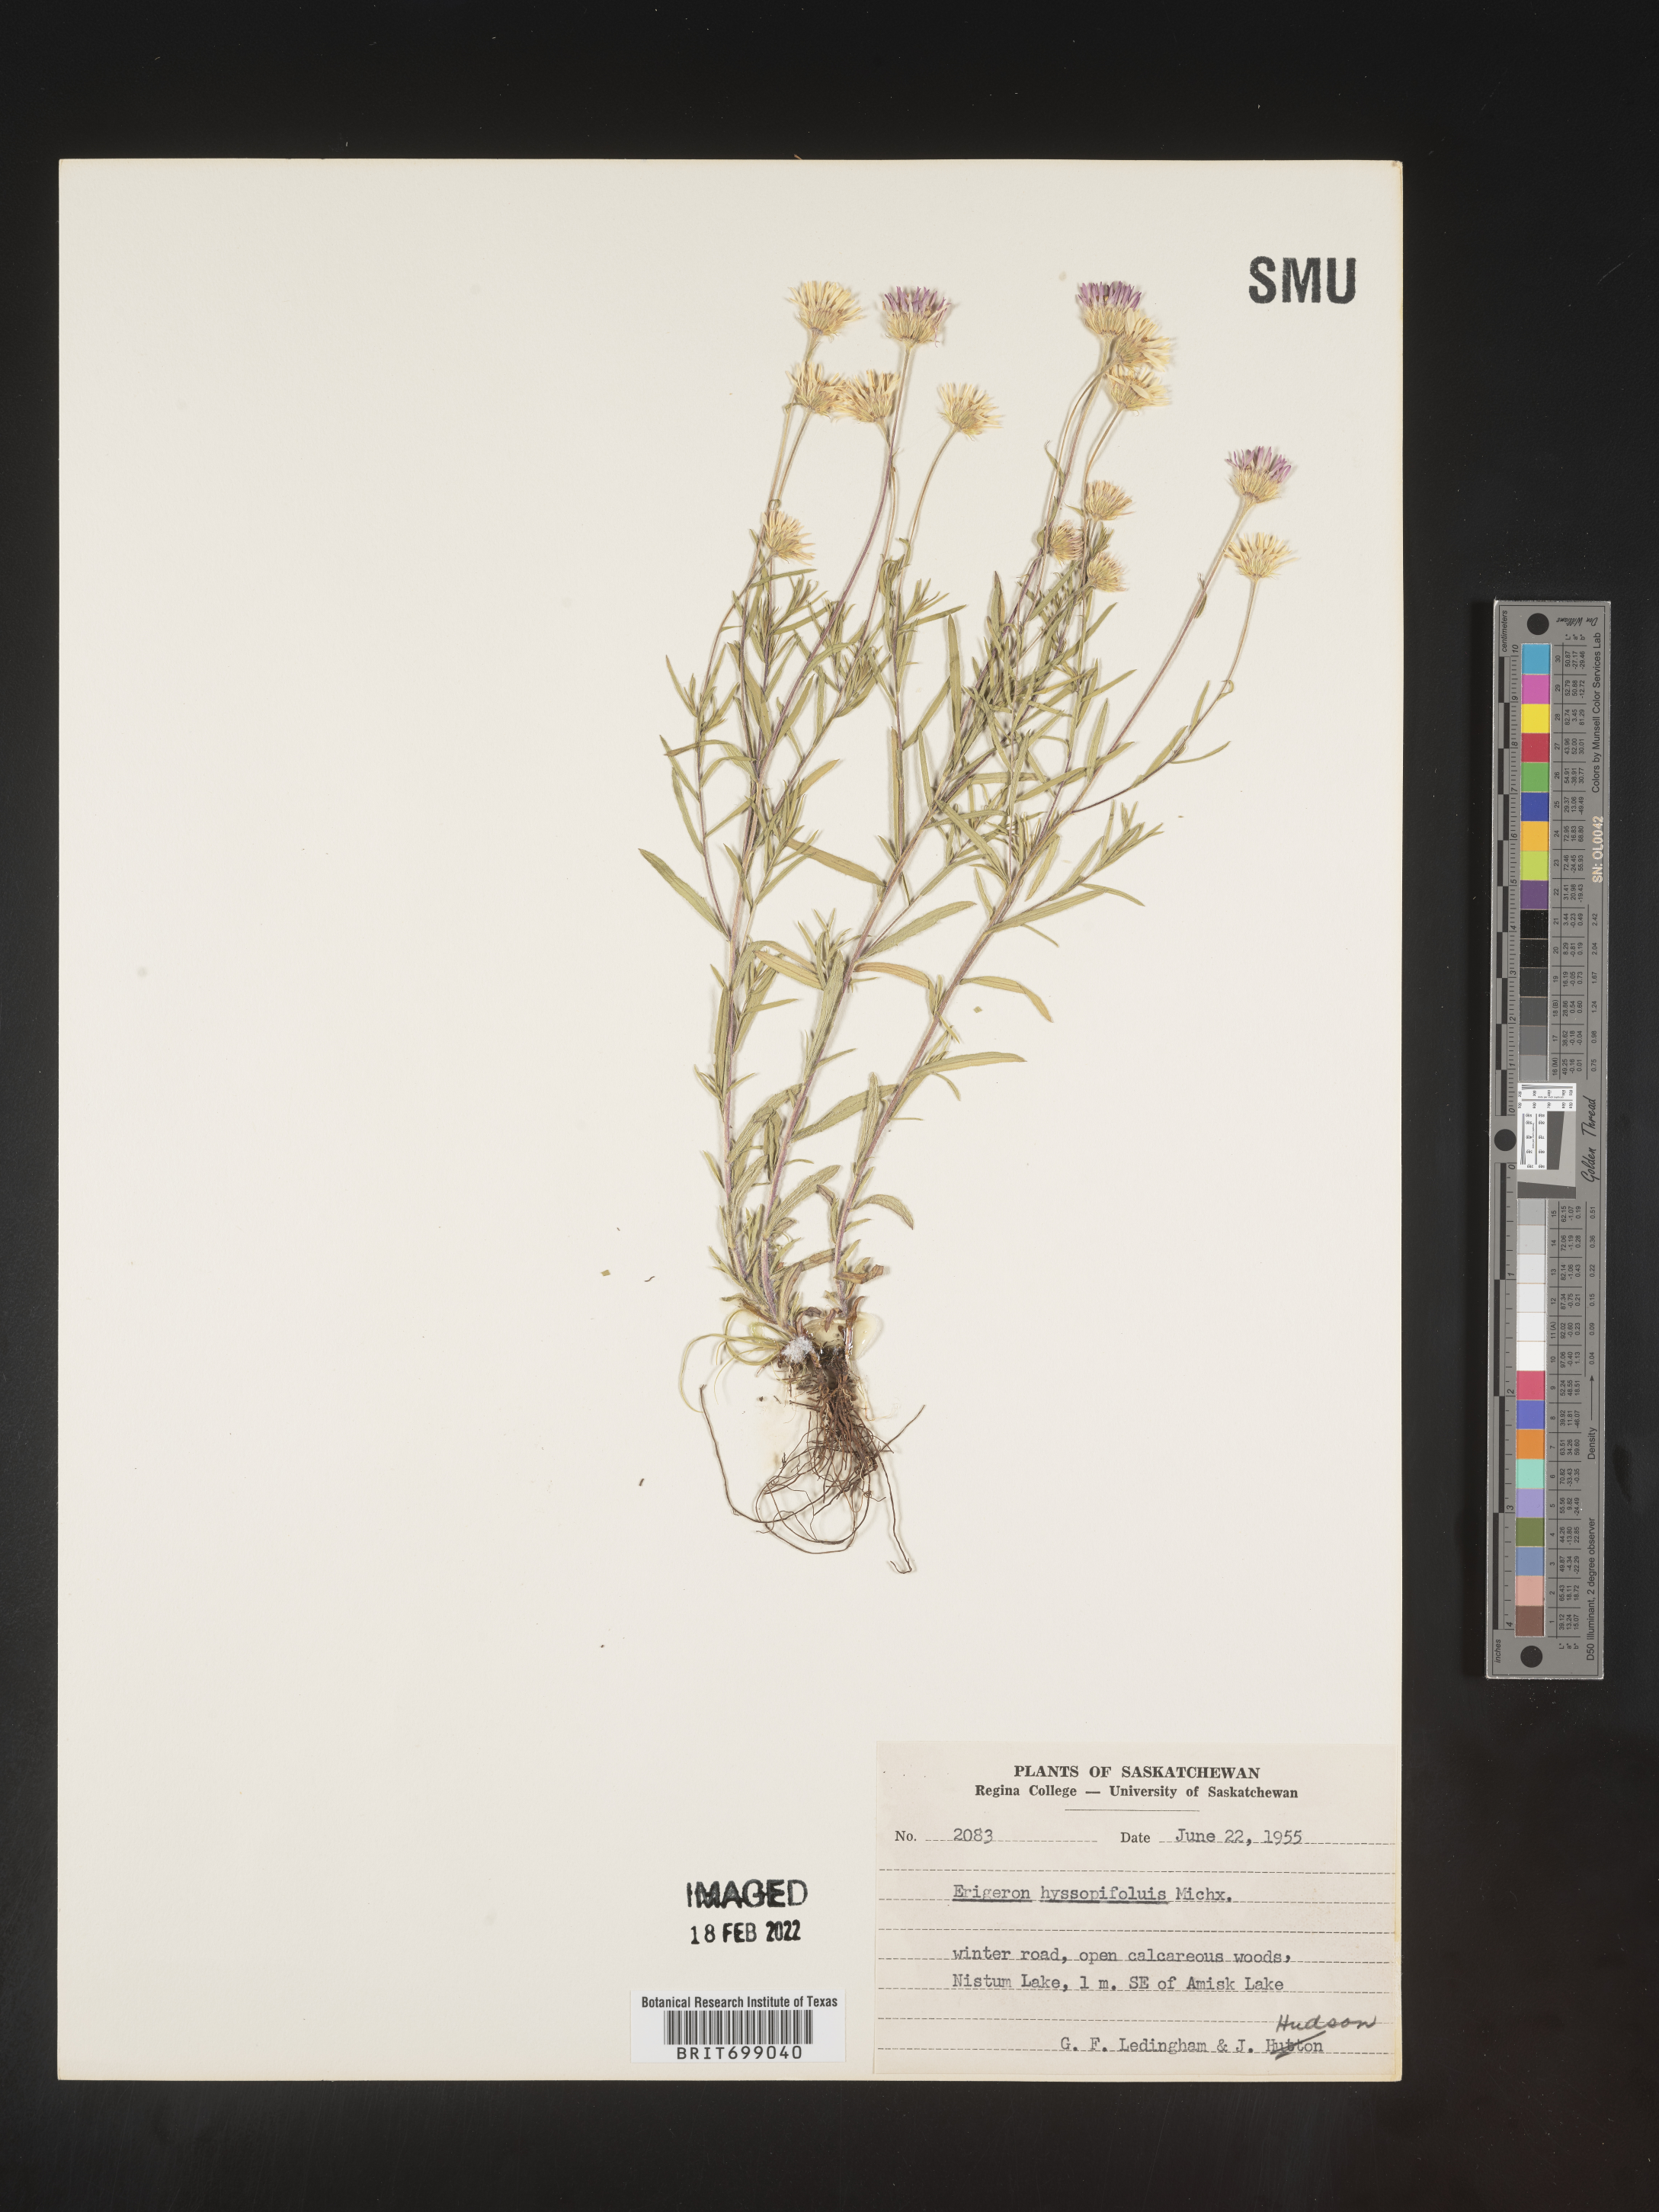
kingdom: Plantae
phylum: Tracheophyta
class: Magnoliopsida
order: Asterales
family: Asteraceae
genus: Erigeron
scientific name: Erigeron hyssopifolius
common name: Daisy fleabane
